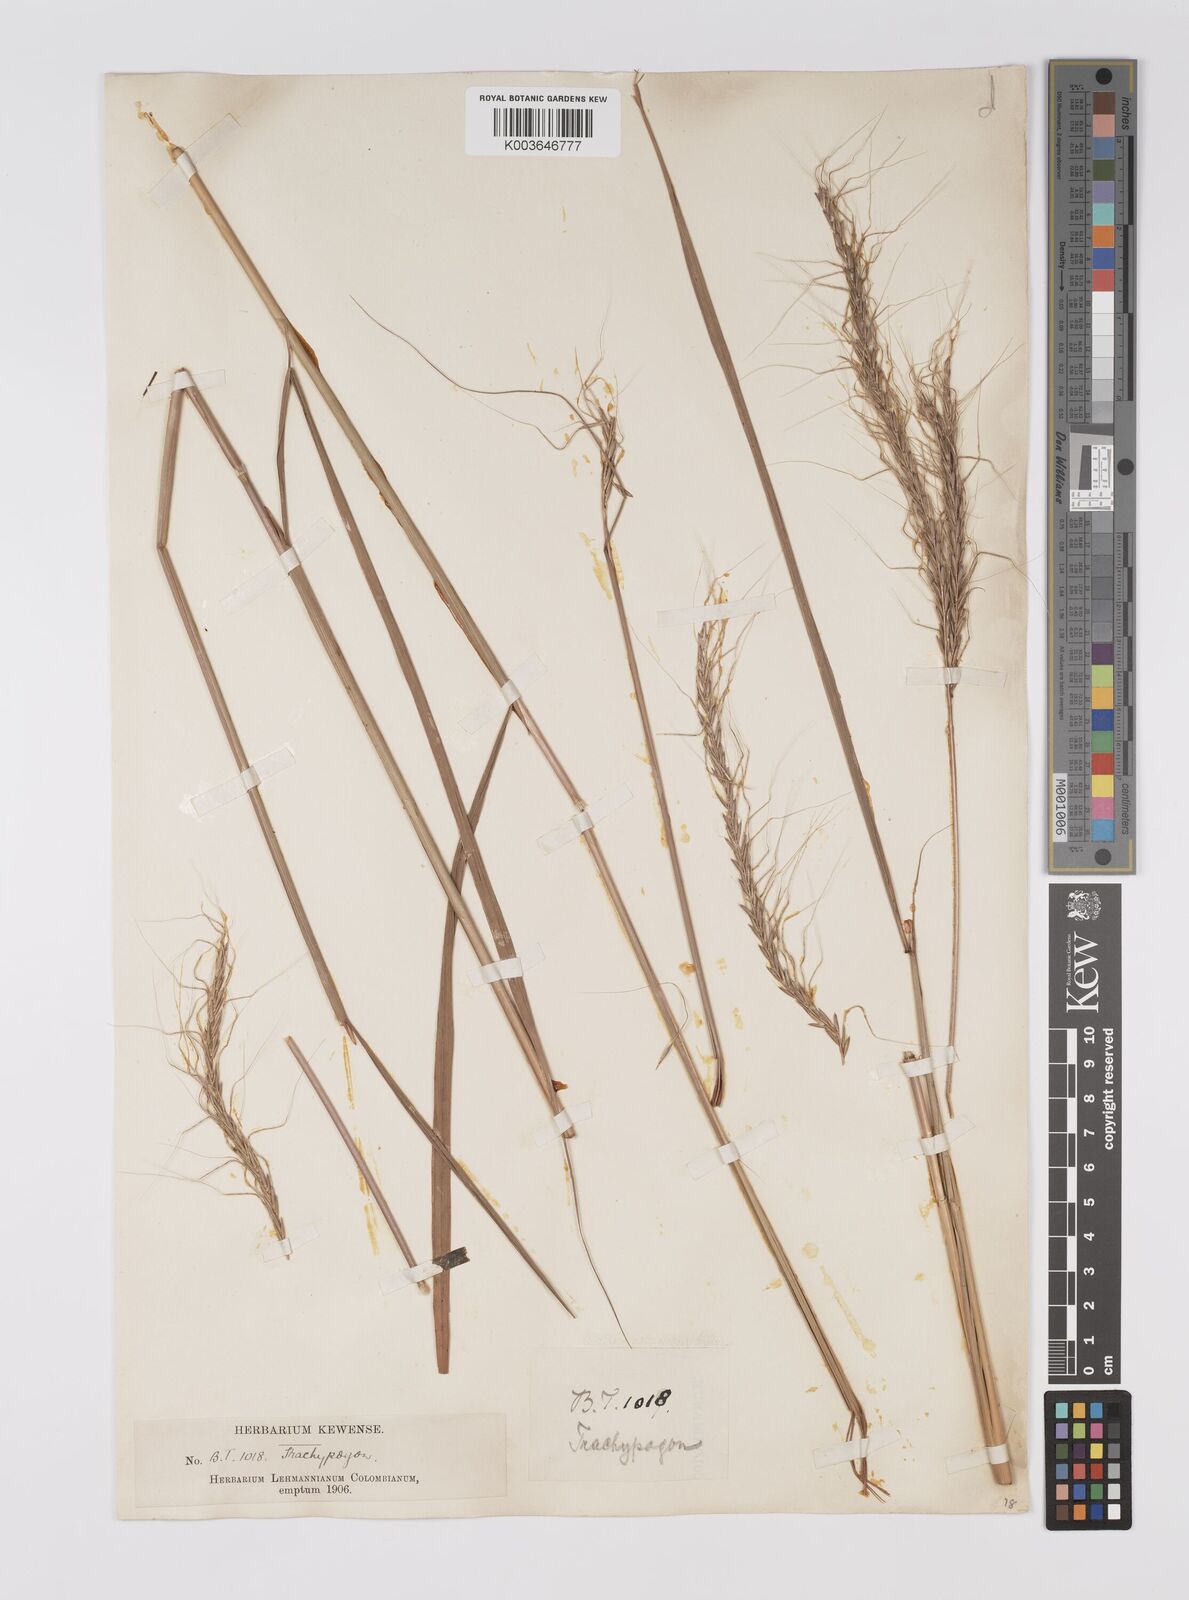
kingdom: Plantae
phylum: Tracheophyta
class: Liliopsida
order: Poales
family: Poaceae
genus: Trachypogon
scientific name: Trachypogon spicatus
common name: Crinkle-awn
